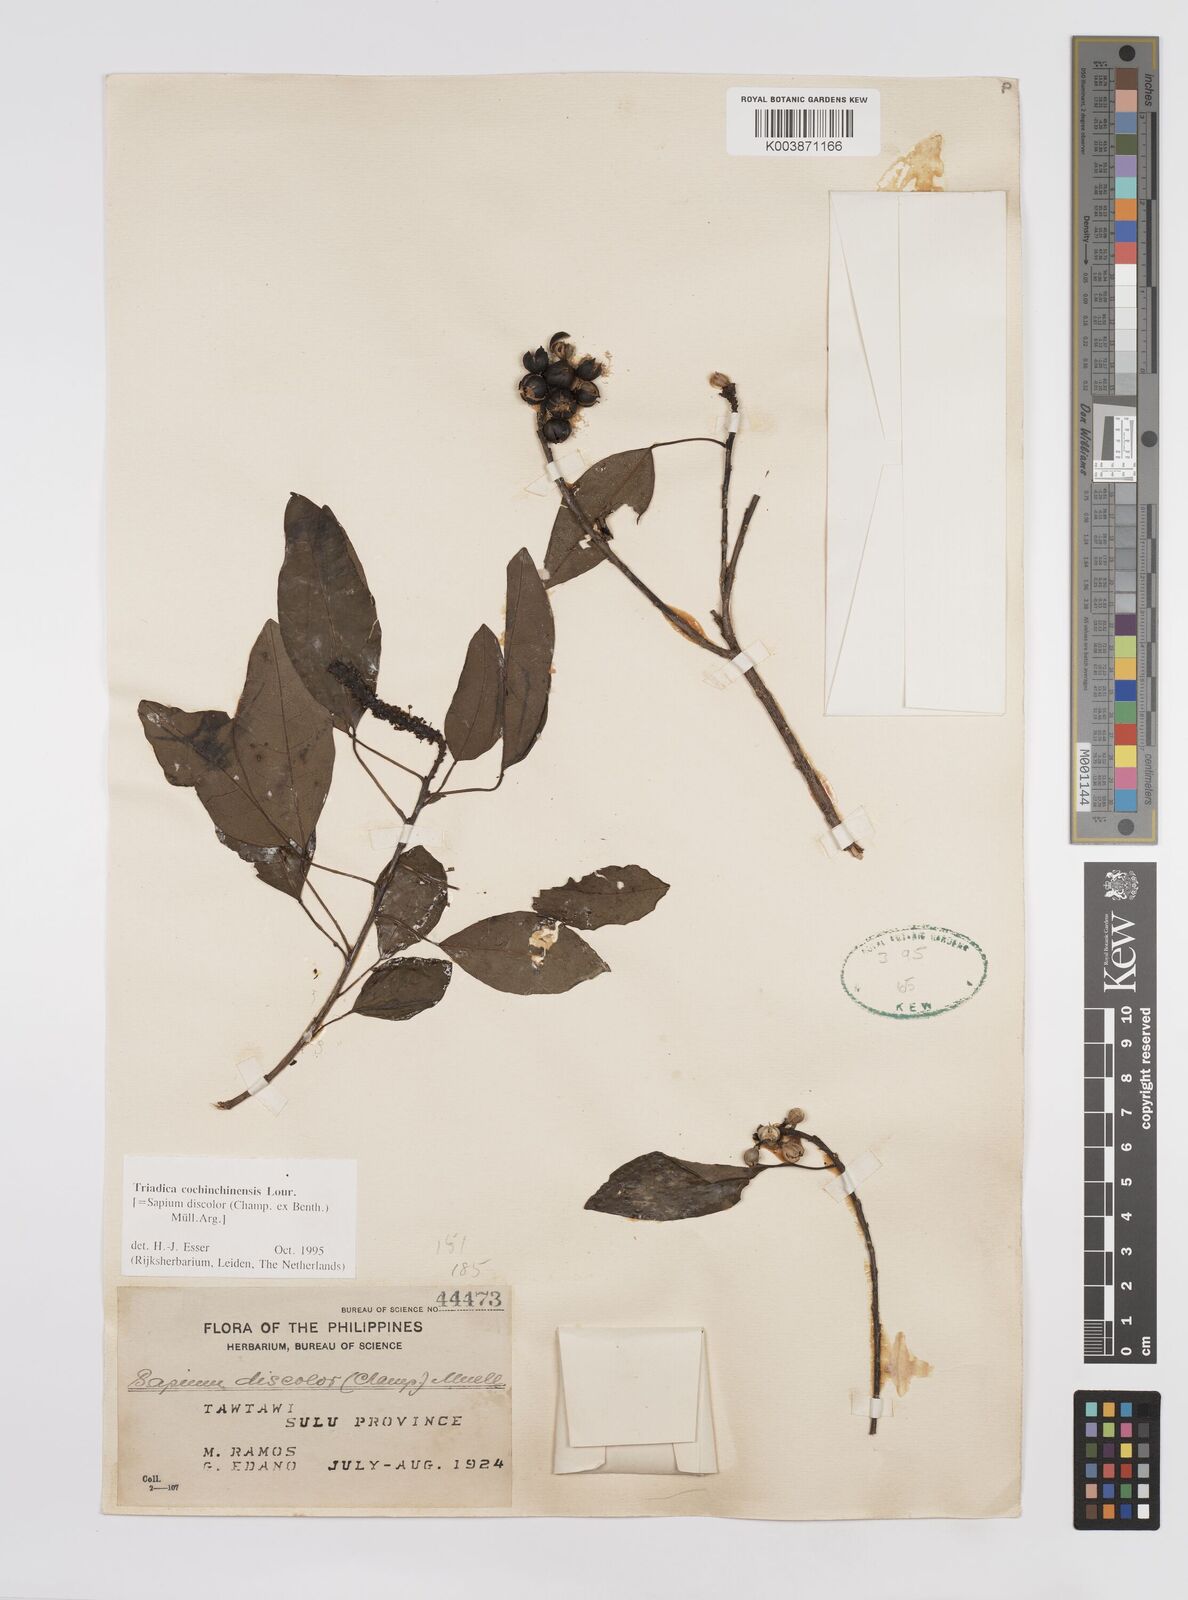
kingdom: Plantae
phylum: Tracheophyta
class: Magnoliopsida
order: Malpighiales
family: Euphorbiaceae
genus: Triadica
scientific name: Triadica cochinchinensis
